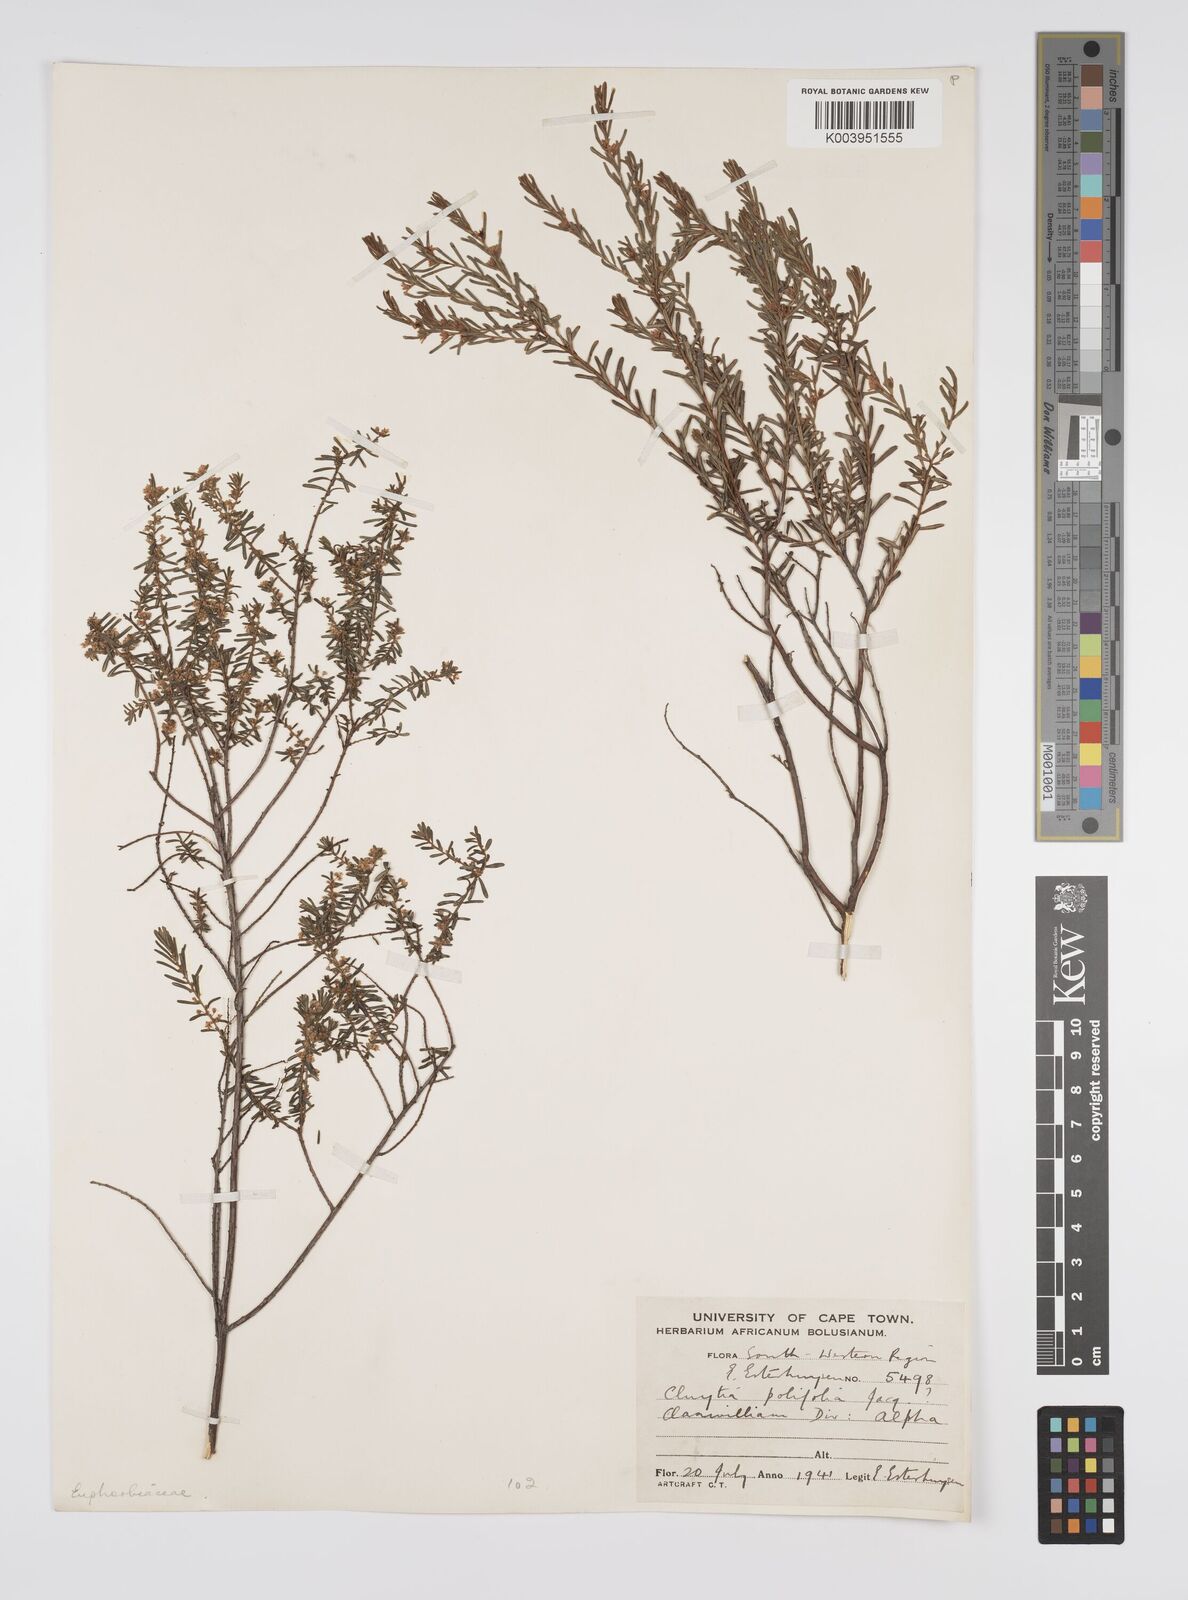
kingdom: Plantae
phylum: Tracheophyta
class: Magnoliopsida
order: Malpighiales
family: Peraceae
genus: Clutia
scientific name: Clutia
